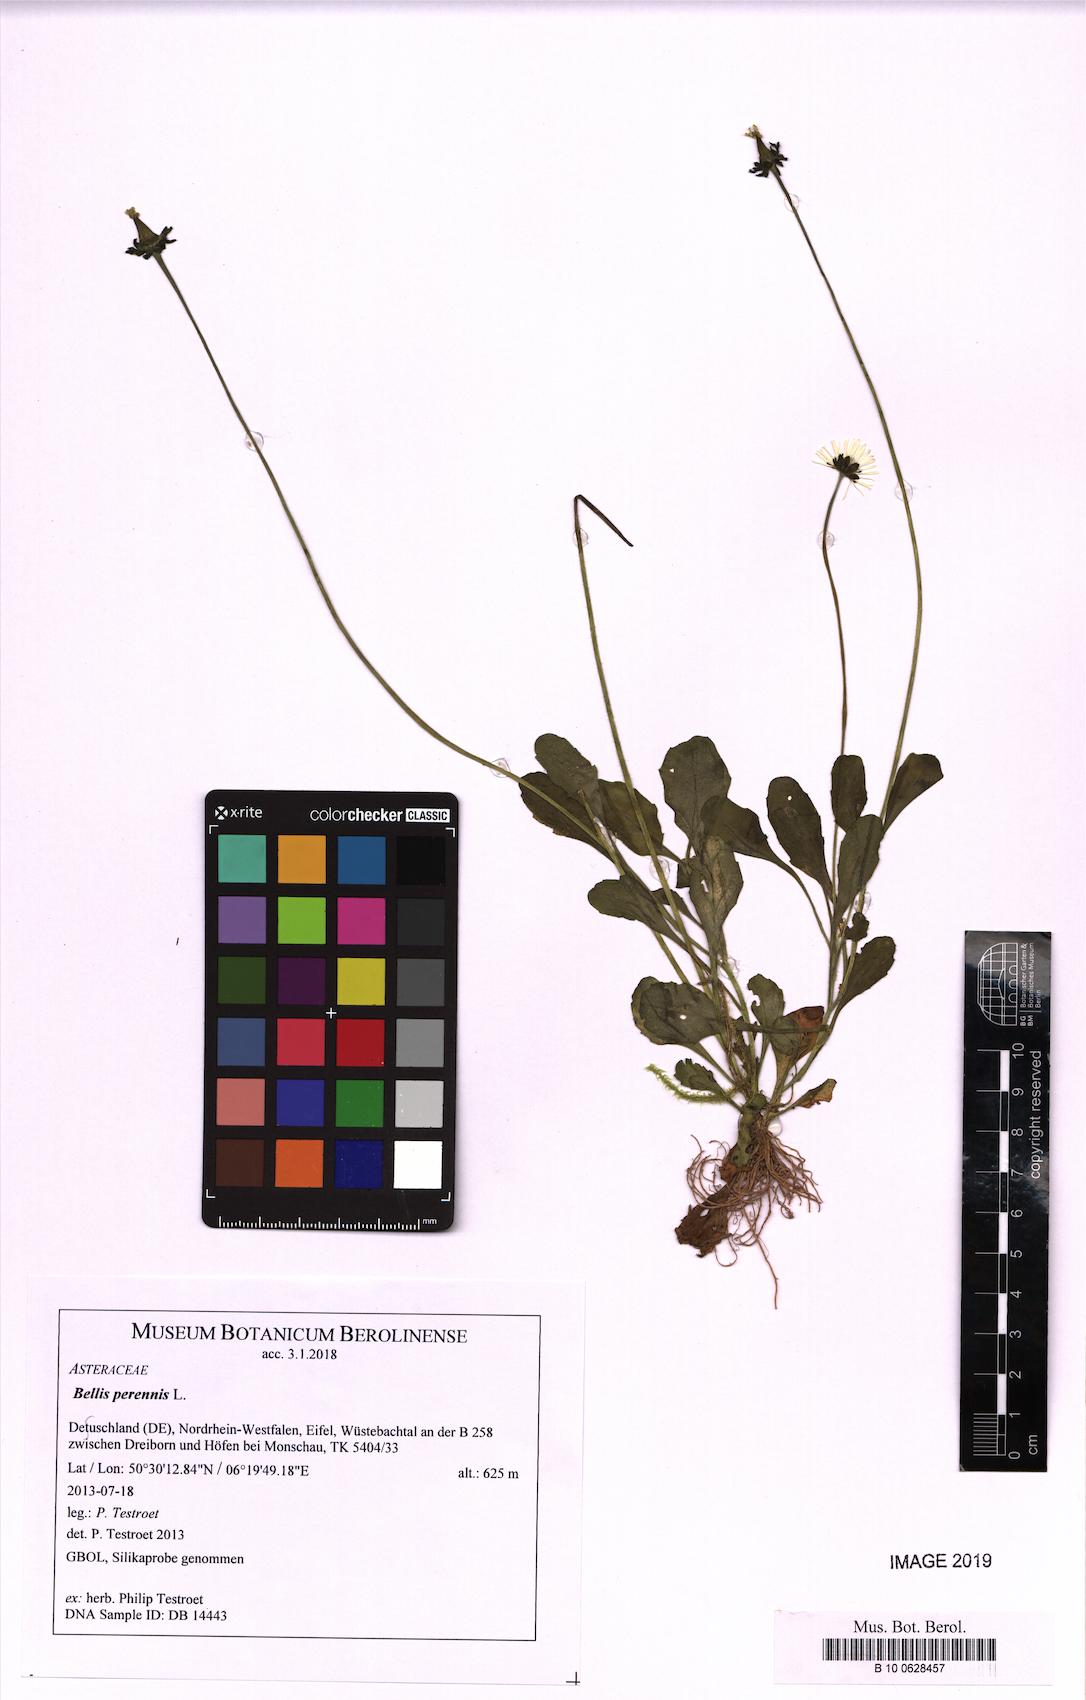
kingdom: Plantae
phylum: Tracheophyta
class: Magnoliopsida
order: Asterales
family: Asteraceae
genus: Bellis
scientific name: Bellis perennis
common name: Lawndaisy
